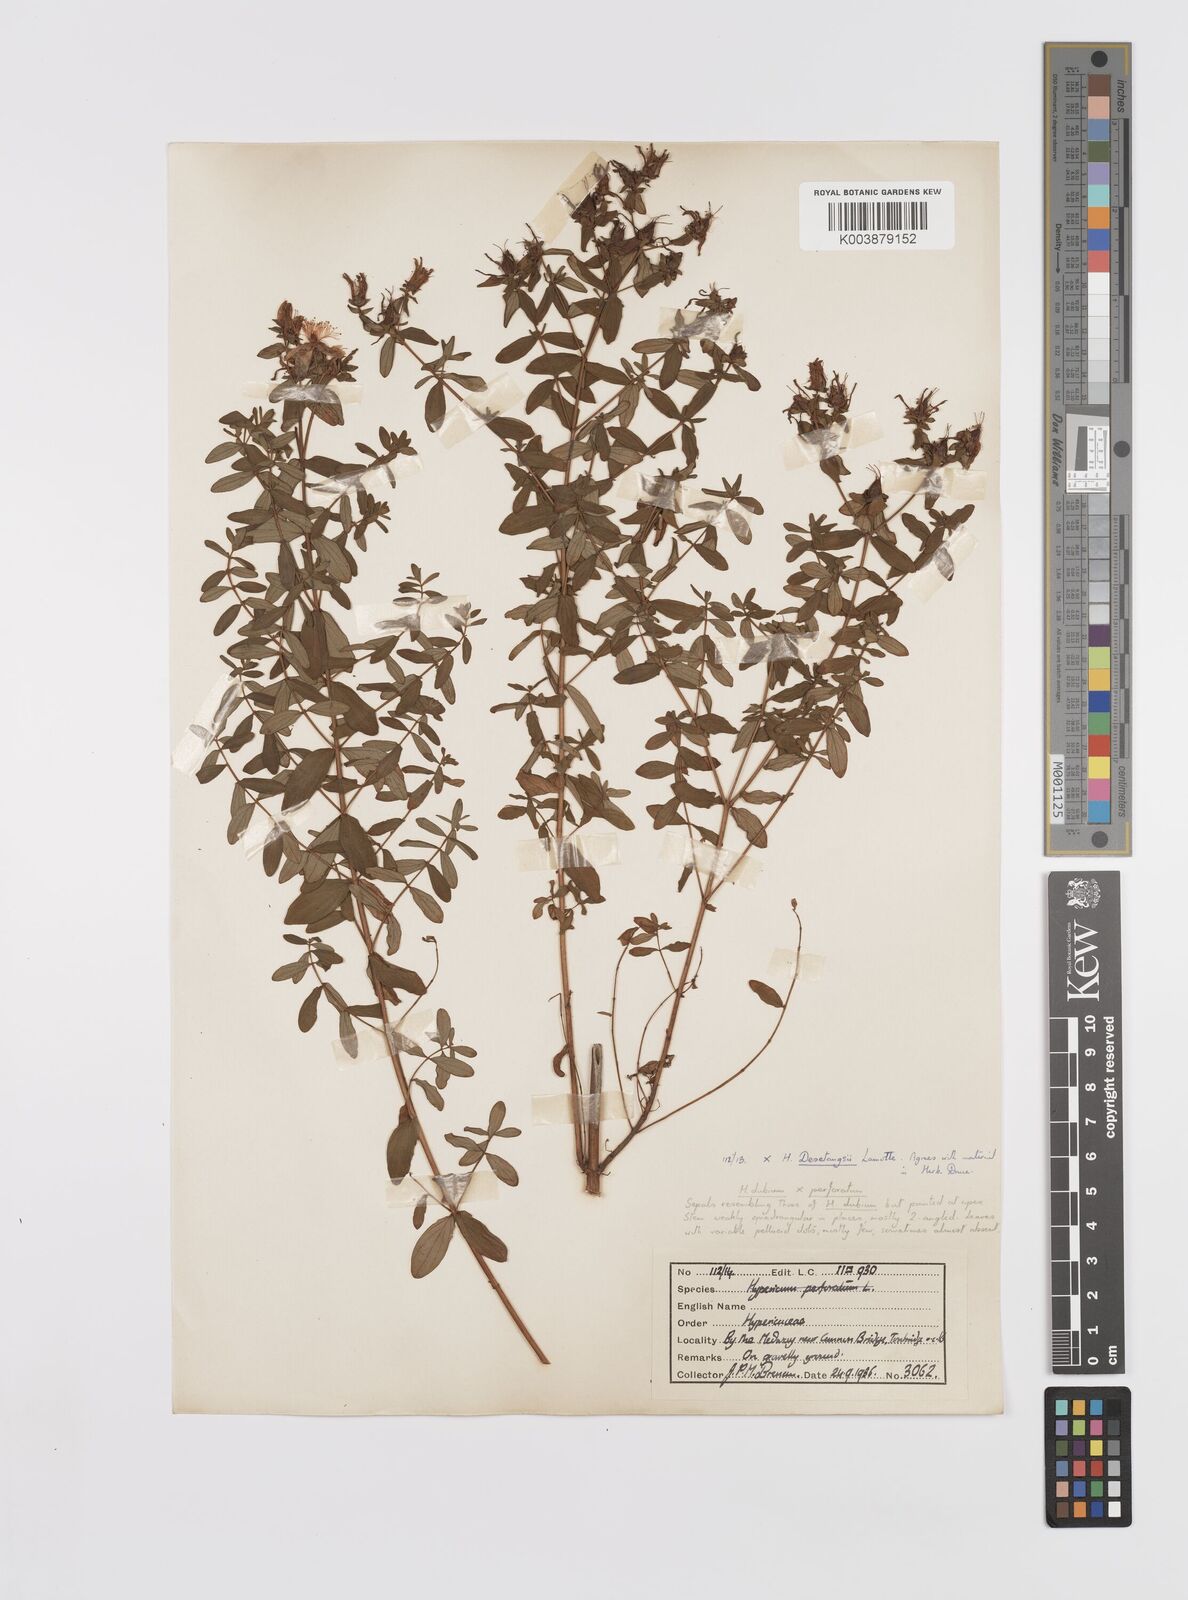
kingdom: Plantae
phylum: Tracheophyta
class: Magnoliopsida
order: Malpighiales
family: Hypericaceae
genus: Hypericum
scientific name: Hypericum desetangsii
